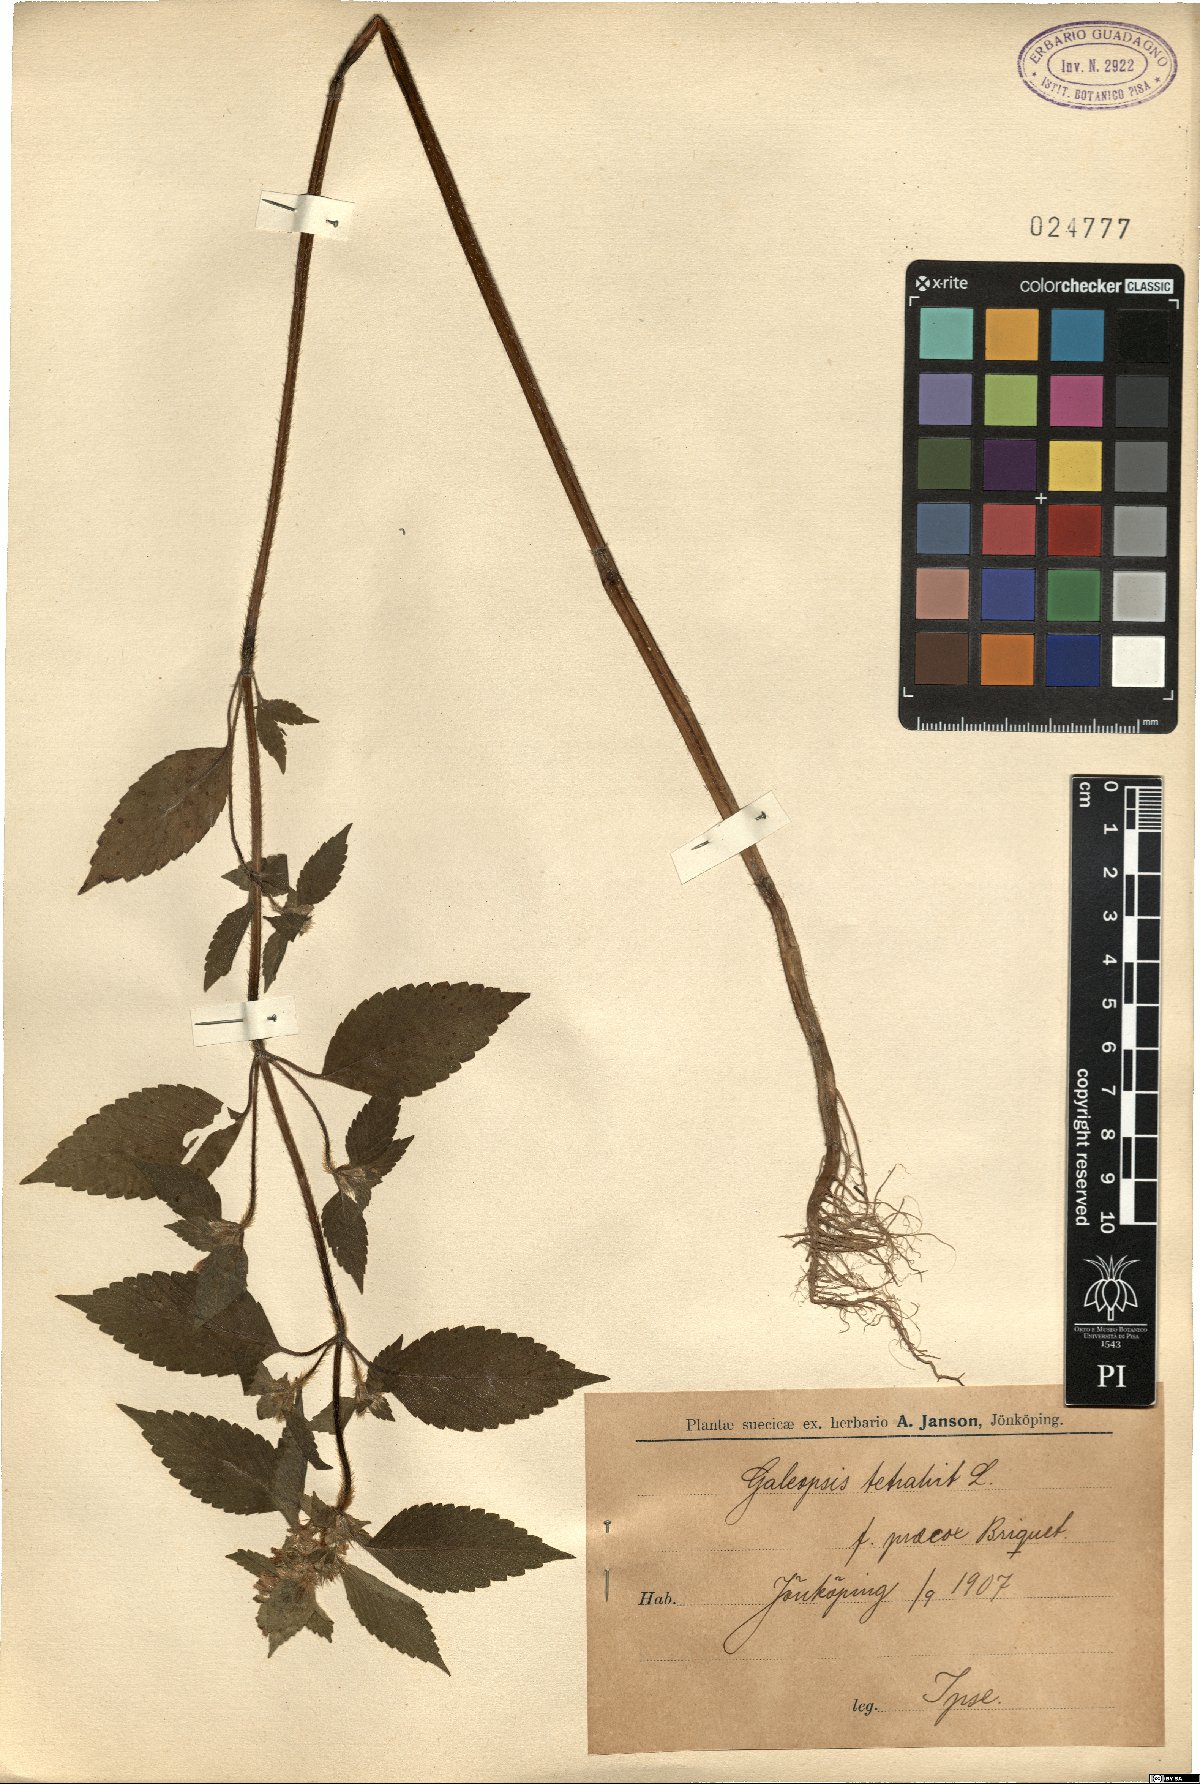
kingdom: Plantae
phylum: Tracheophyta
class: Magnoliopsida
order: Lamiales
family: Lamiaceae
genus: Galeopsis
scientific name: Galeopsis tetrahit
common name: Common hemp-nettle
